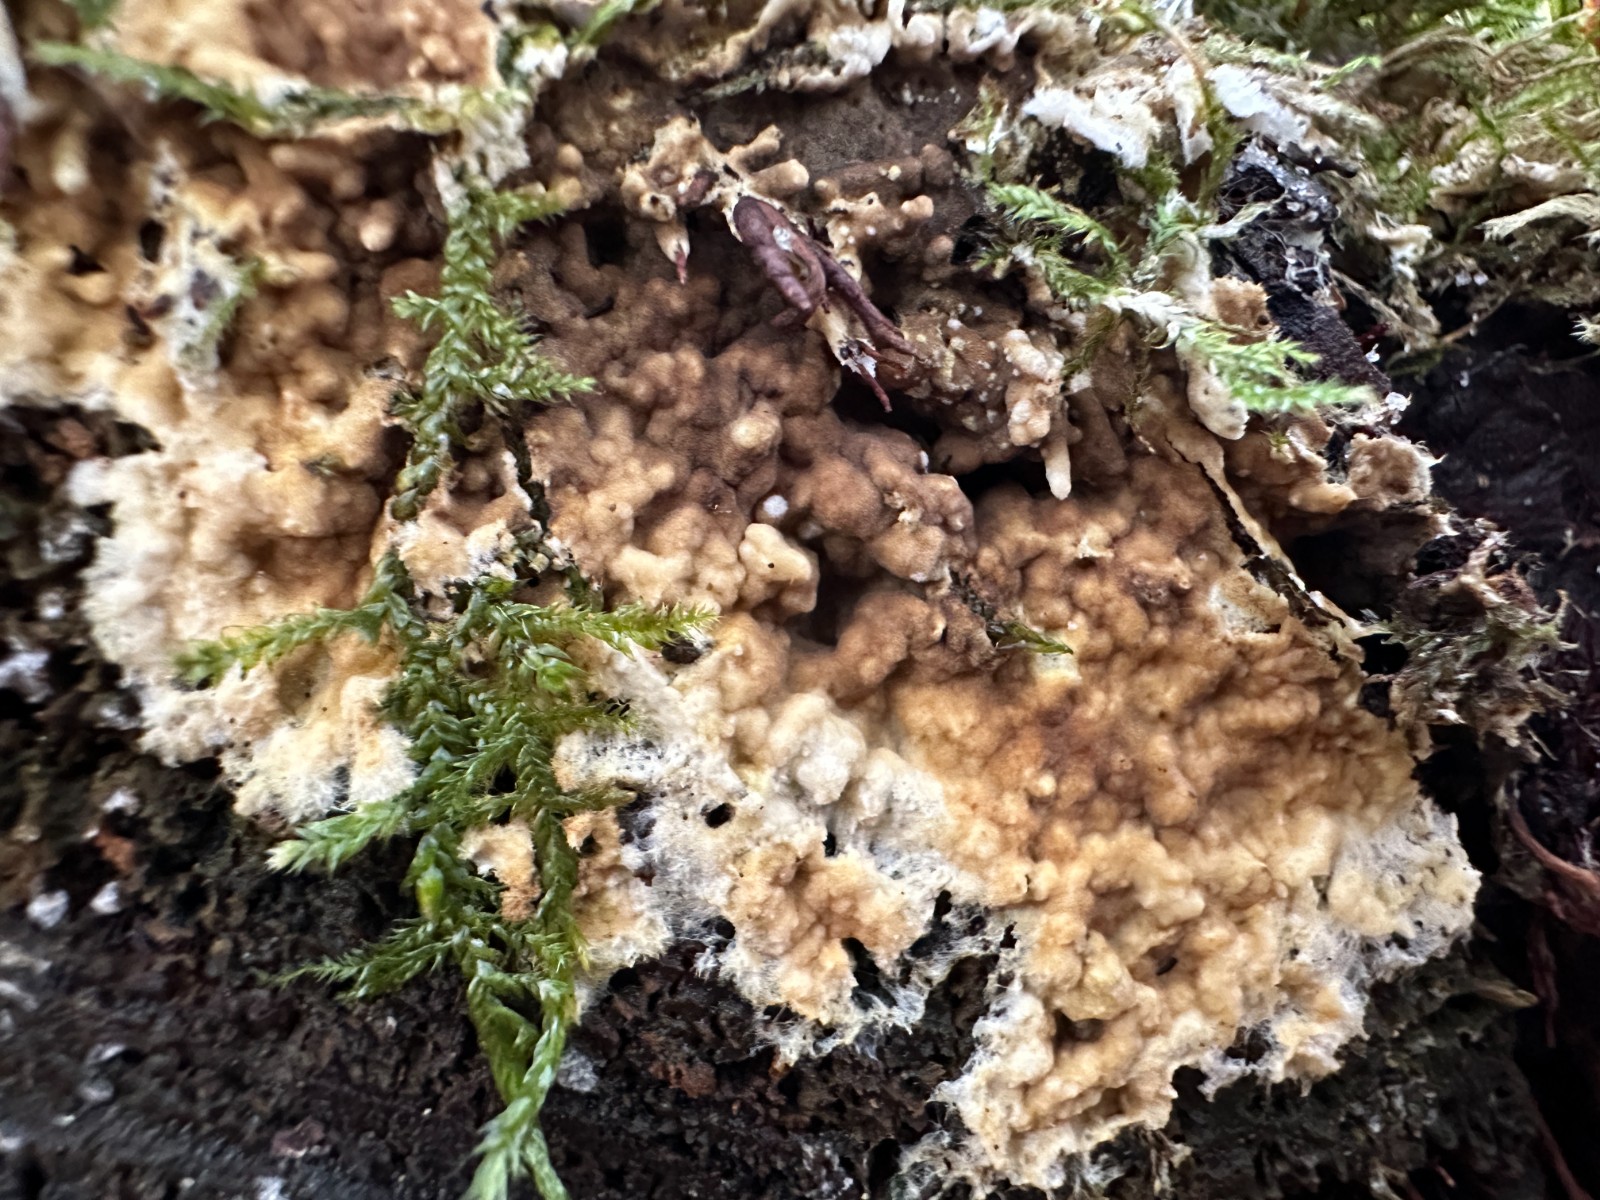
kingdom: Fungi
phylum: Basidiomycota
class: Agaricomycetes
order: Boletales
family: Coniophoraceae
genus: Coniophora
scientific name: Coniophora puteana
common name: gul tømmersvamp
